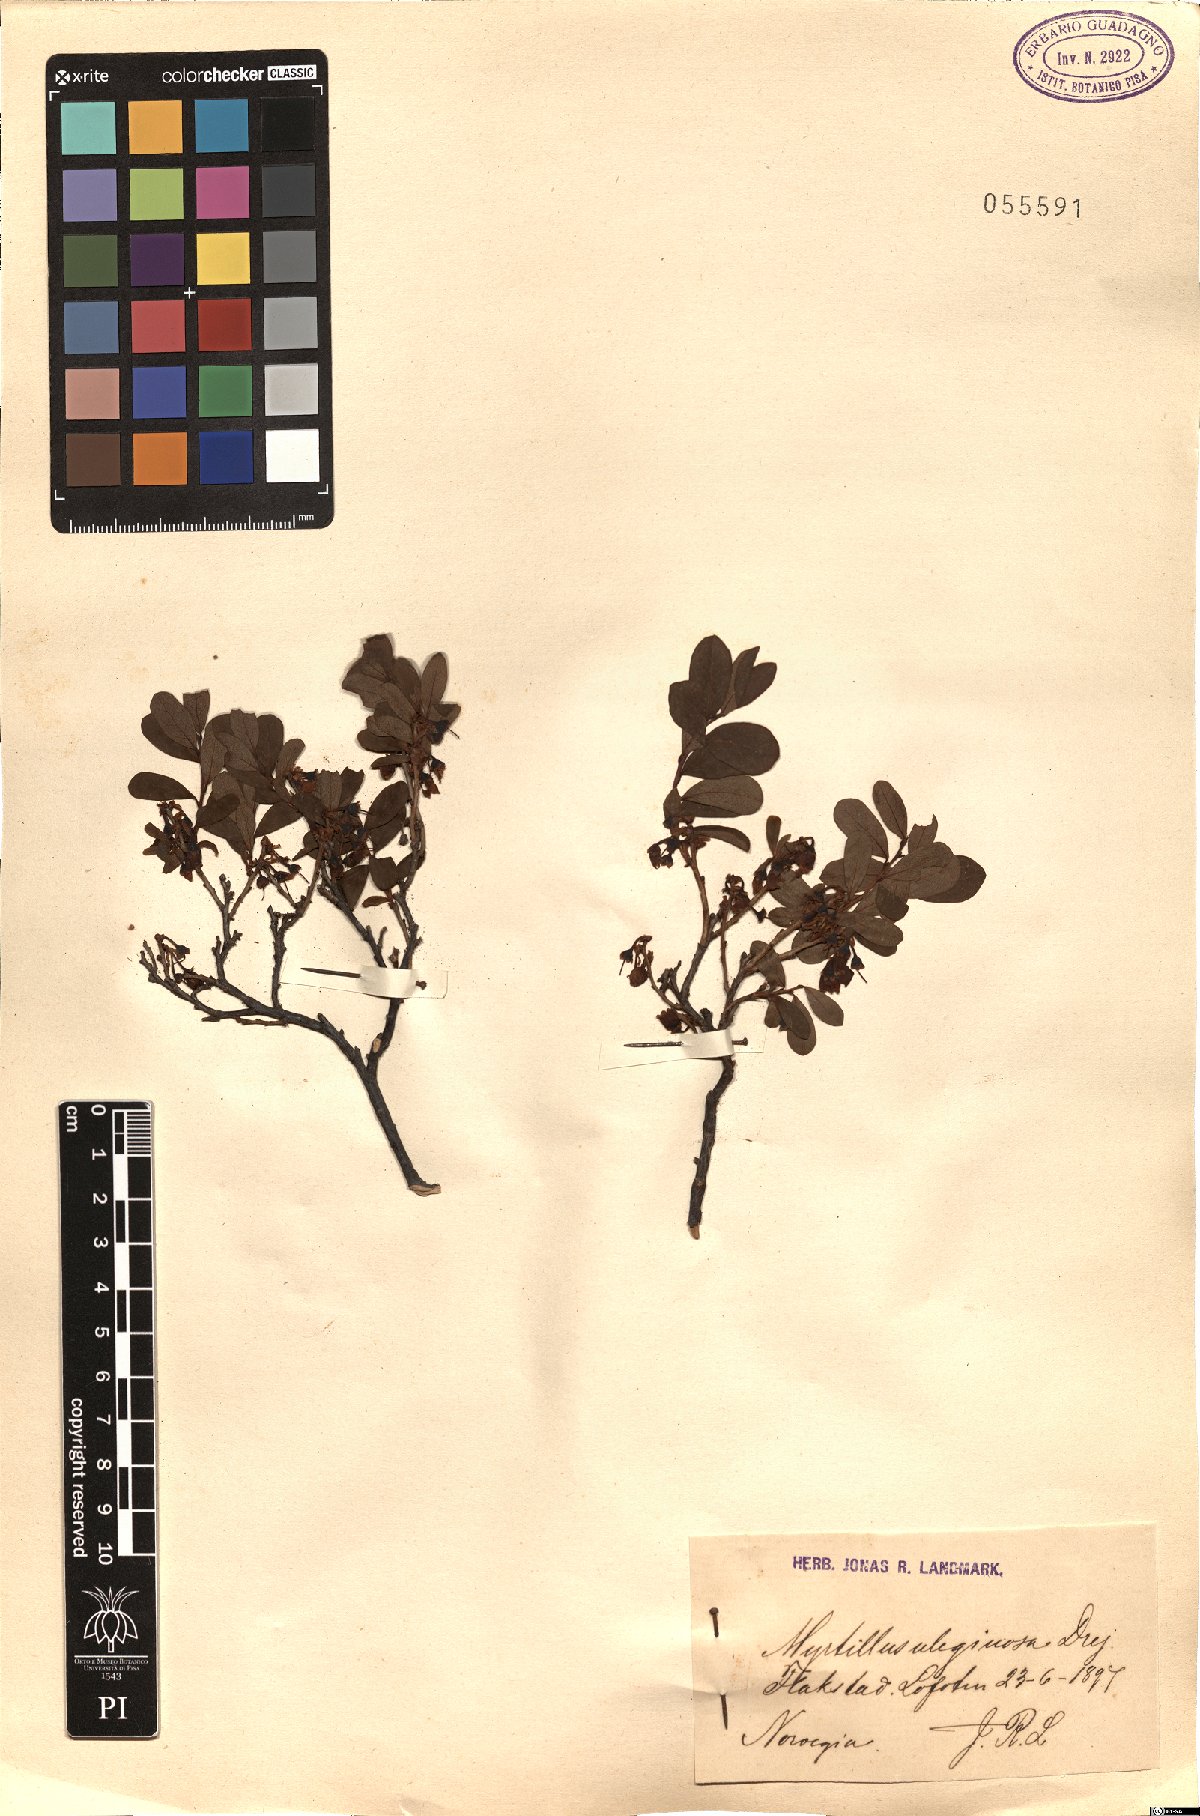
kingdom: Plantae
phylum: Tracheophyta
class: Magnoliopsida
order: Ericales
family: Ericaceae
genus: Vaccinium
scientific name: Vaccinium uliginosum
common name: Bog bilberry
